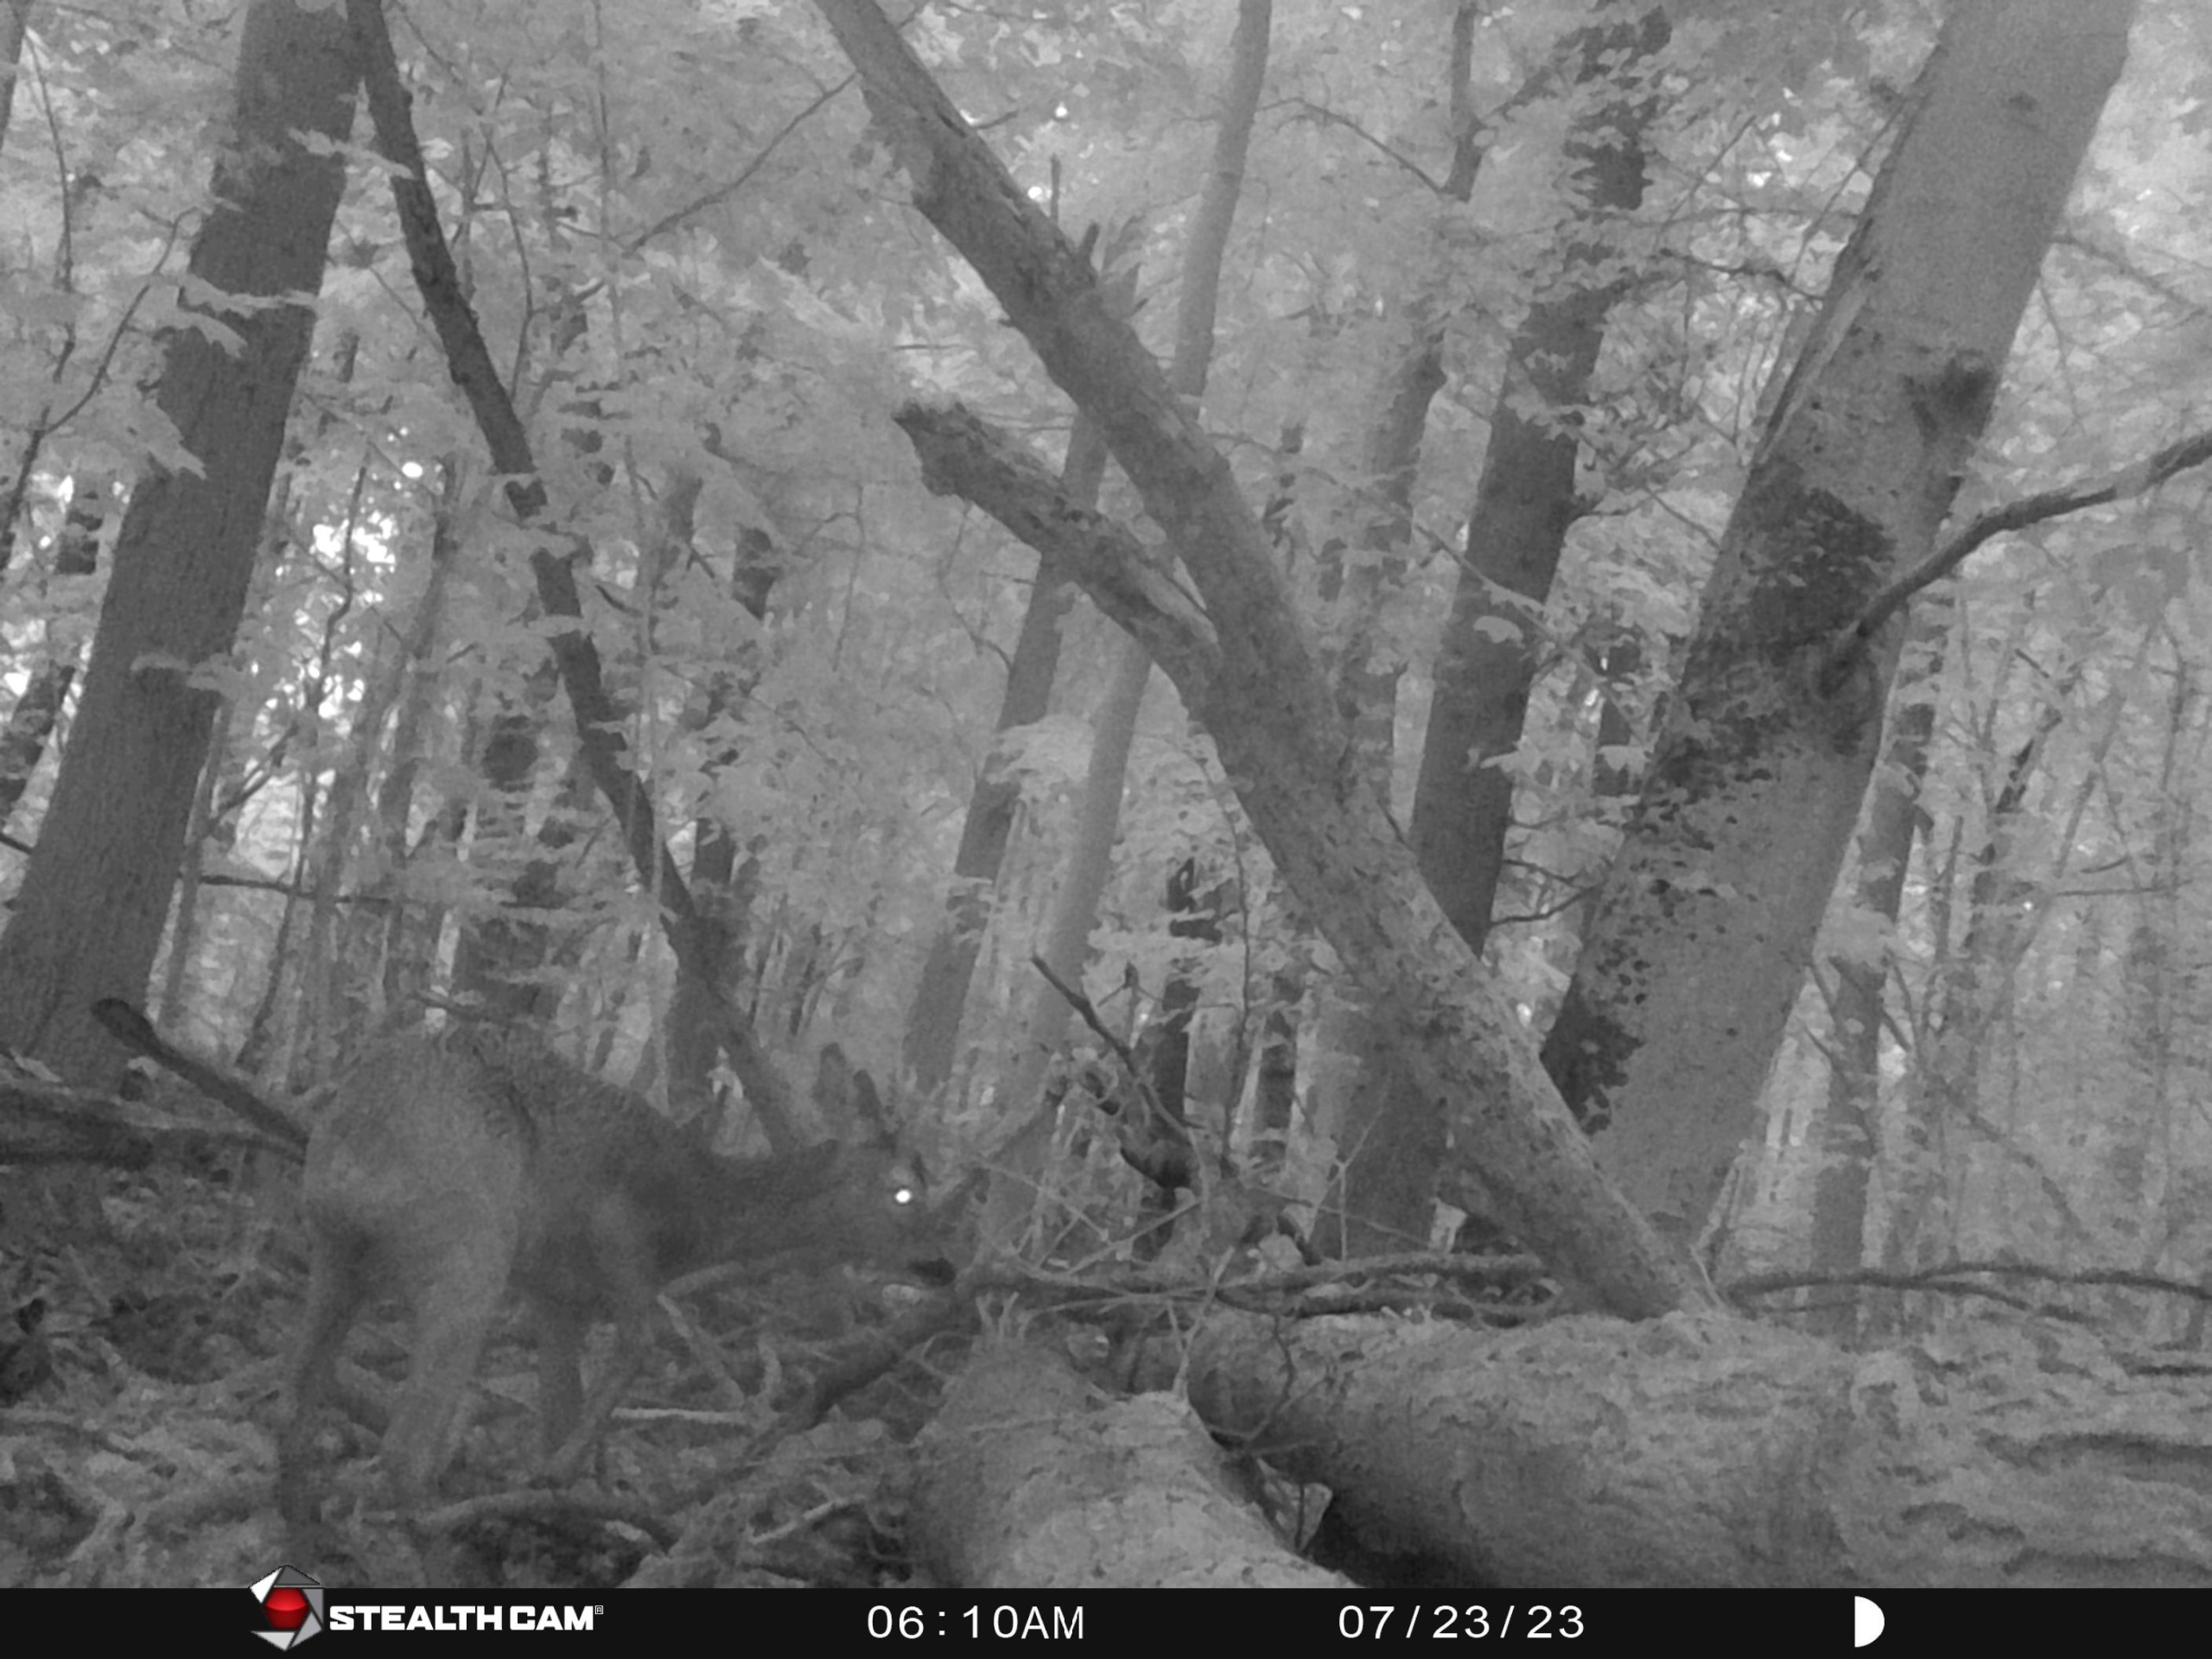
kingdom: Animalia
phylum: Chordata
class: Mammalia
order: Artiodactyla
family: Cervidae
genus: Capreolus
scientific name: Capreolus capreolus
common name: Rådyr
